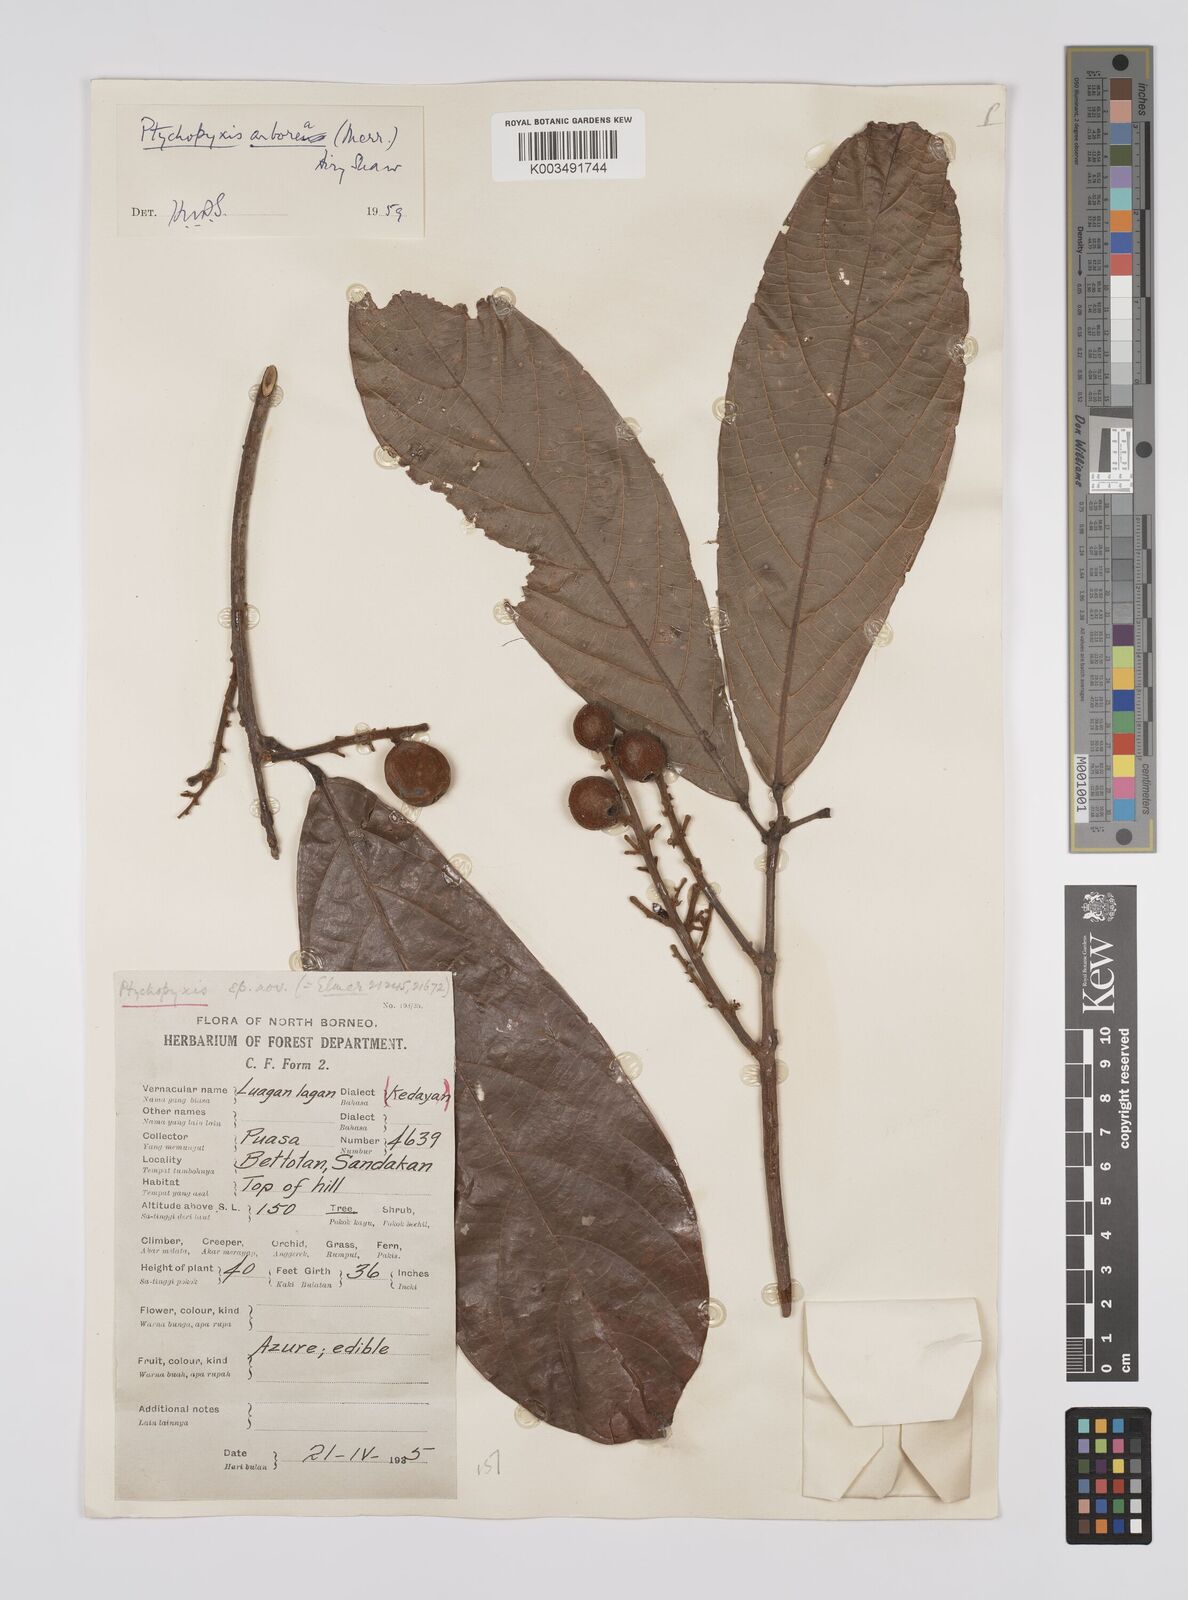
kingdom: Plantae
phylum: Tracheophyta
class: Magnoliopsida
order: Malpighiales
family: Euphorbiaceae
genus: Ptychopyxis
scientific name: Ptychopyxis arborea
